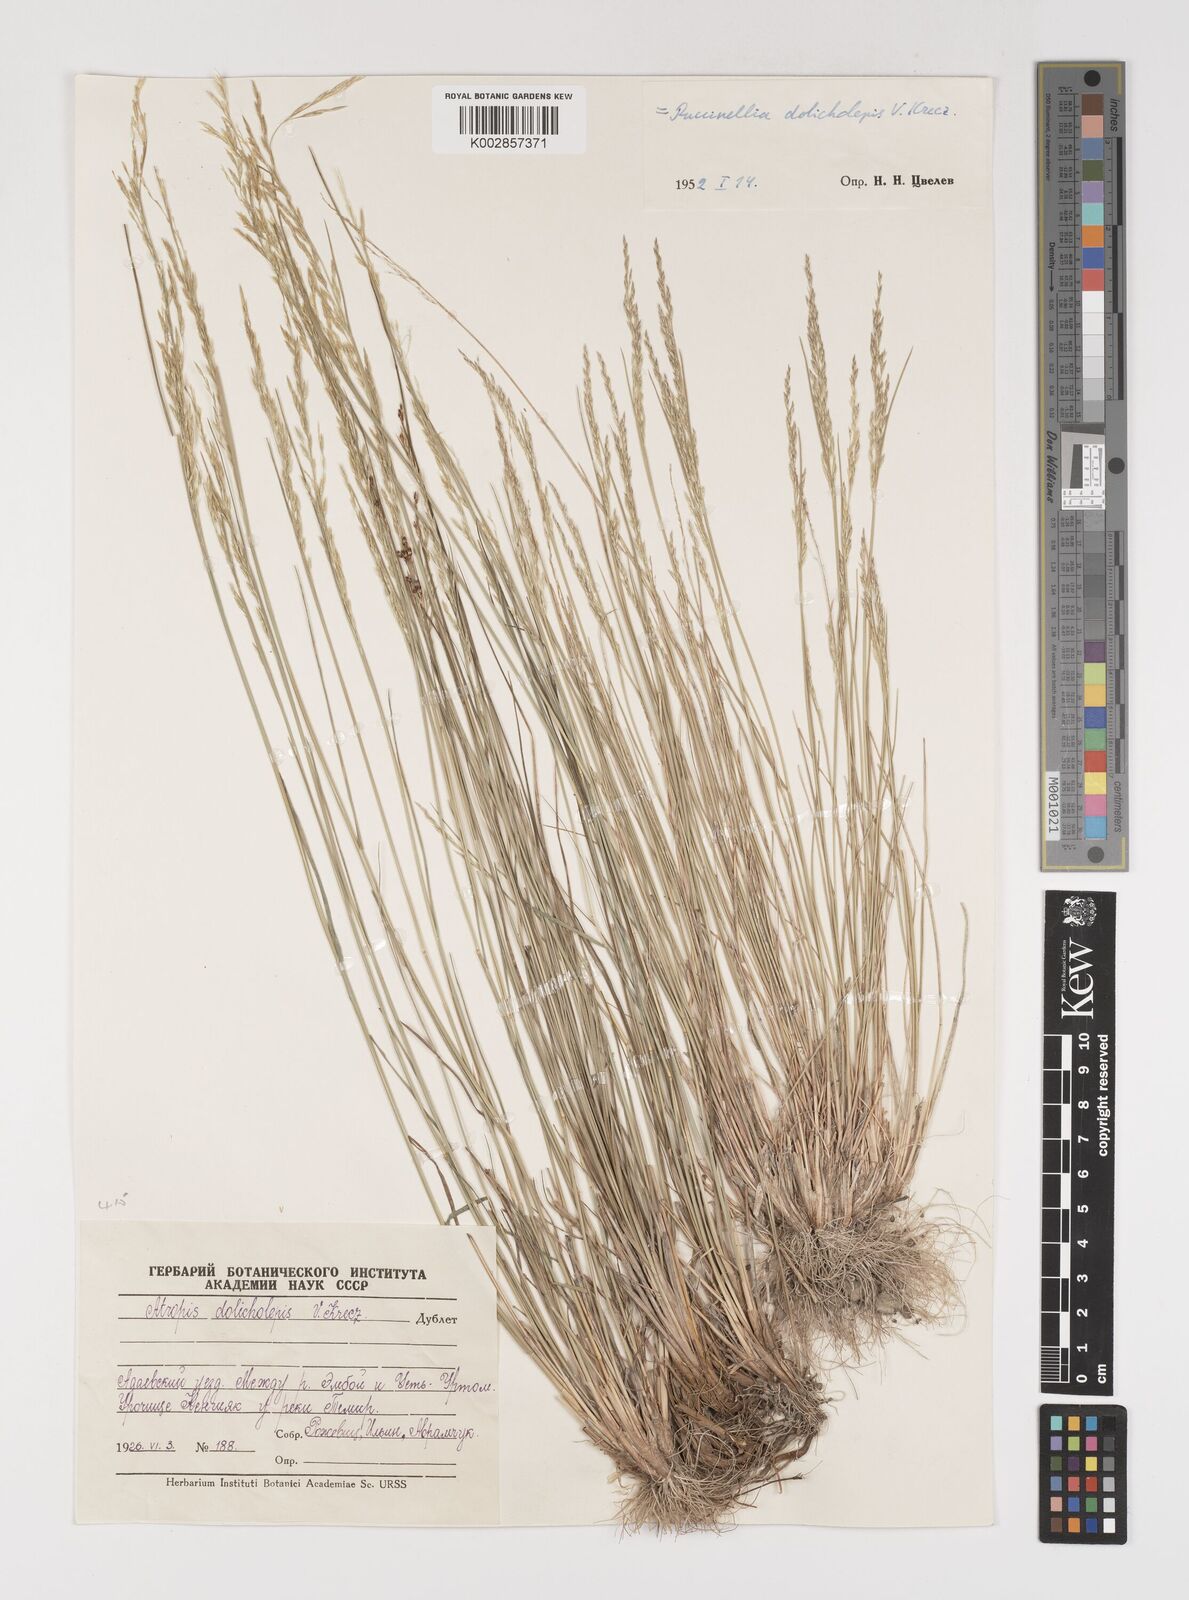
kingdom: Plantae
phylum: Tracheophyta
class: Liliopsida
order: Poales
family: Poaceae
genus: Puccinellia
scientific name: Puccinellia dolicholepis
